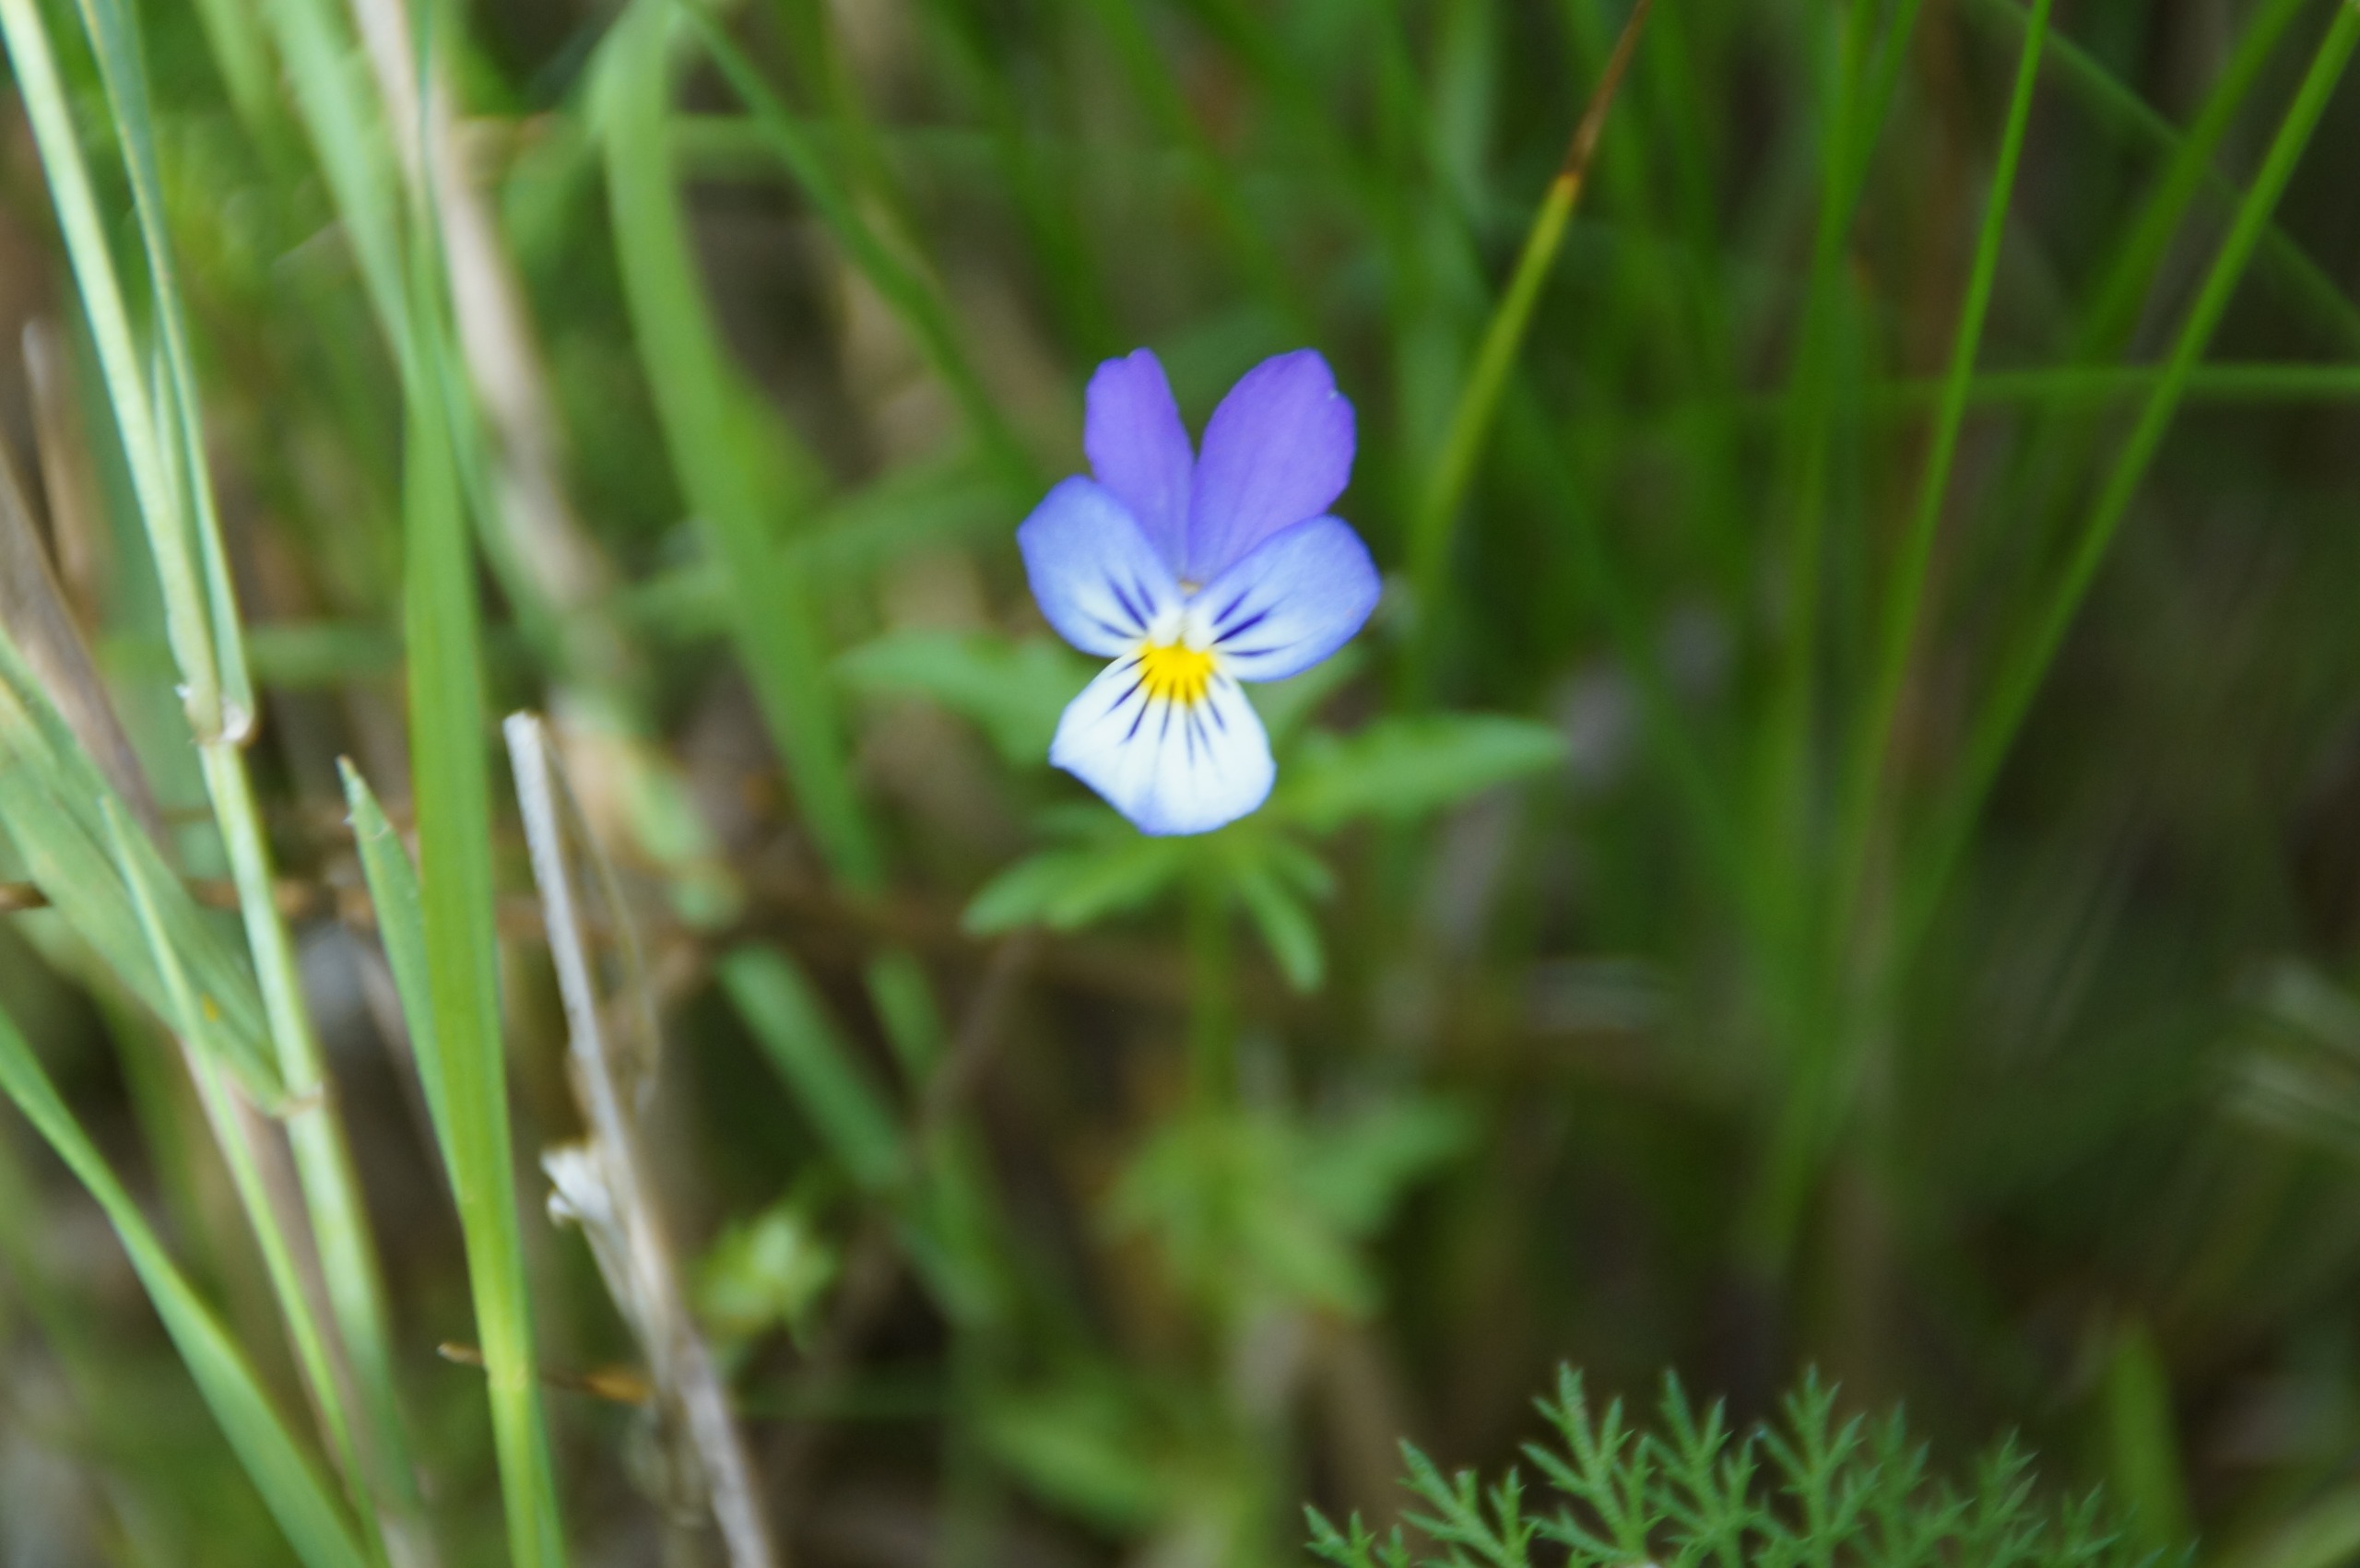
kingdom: Plantae
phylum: Tracheophyta
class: Magnoliopsida
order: Malpighiales
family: Violaceae
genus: Viola
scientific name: Viola tricolor
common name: Stedmoderblomst
